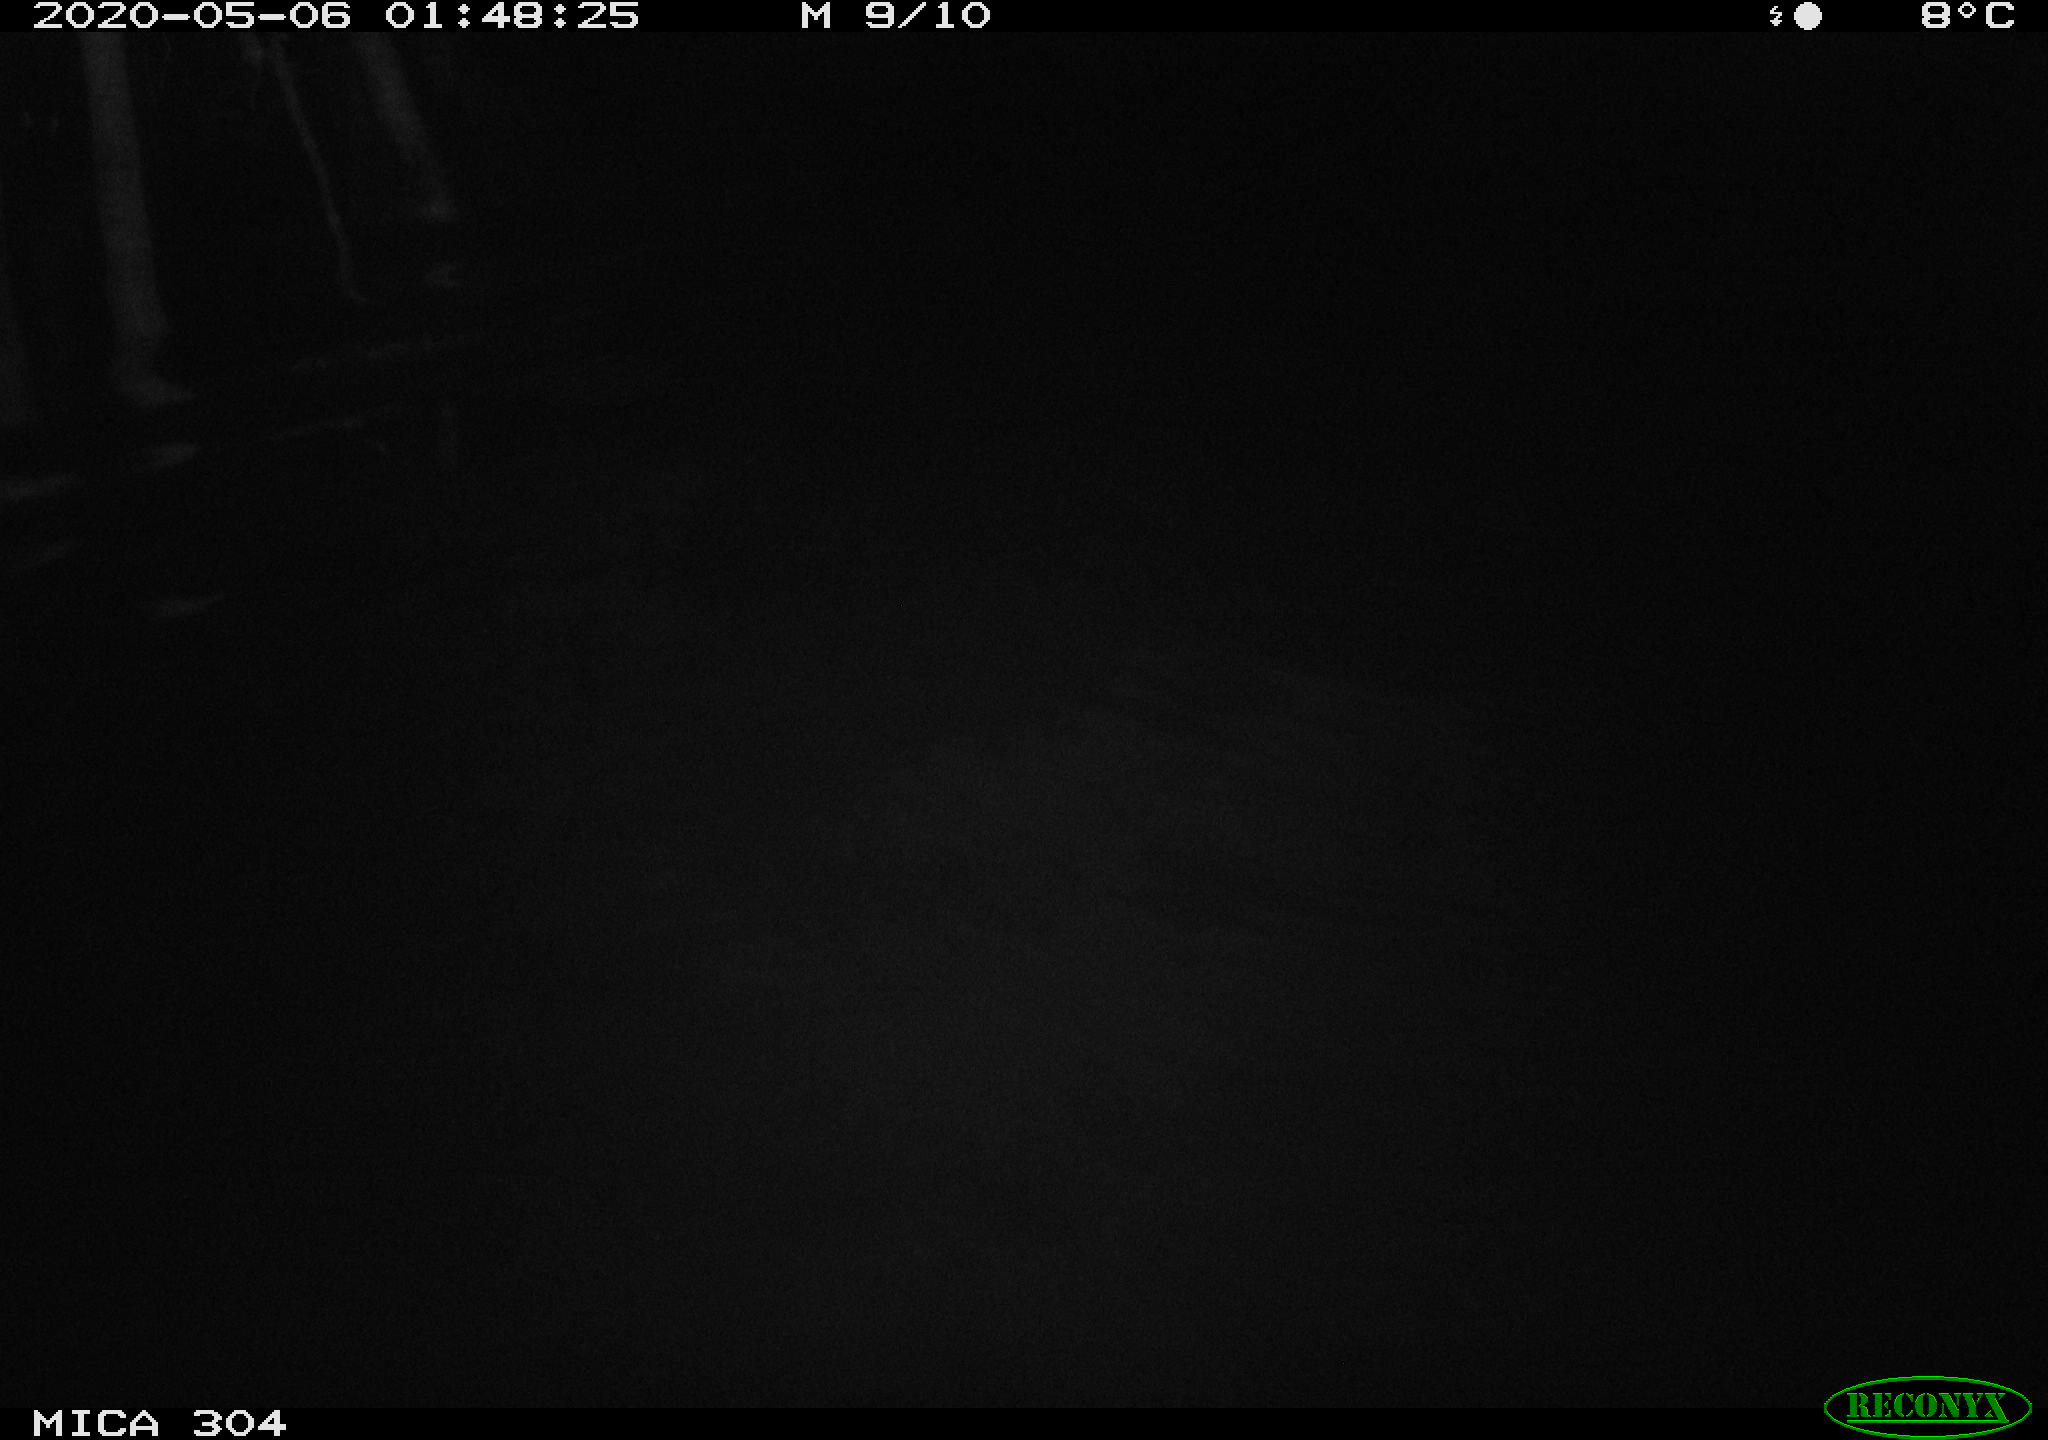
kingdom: Animalia
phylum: Chordata
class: Aves
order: Anseriformes
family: Anatidae
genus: Anas
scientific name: Anas platyrhynchos
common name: Mallard
